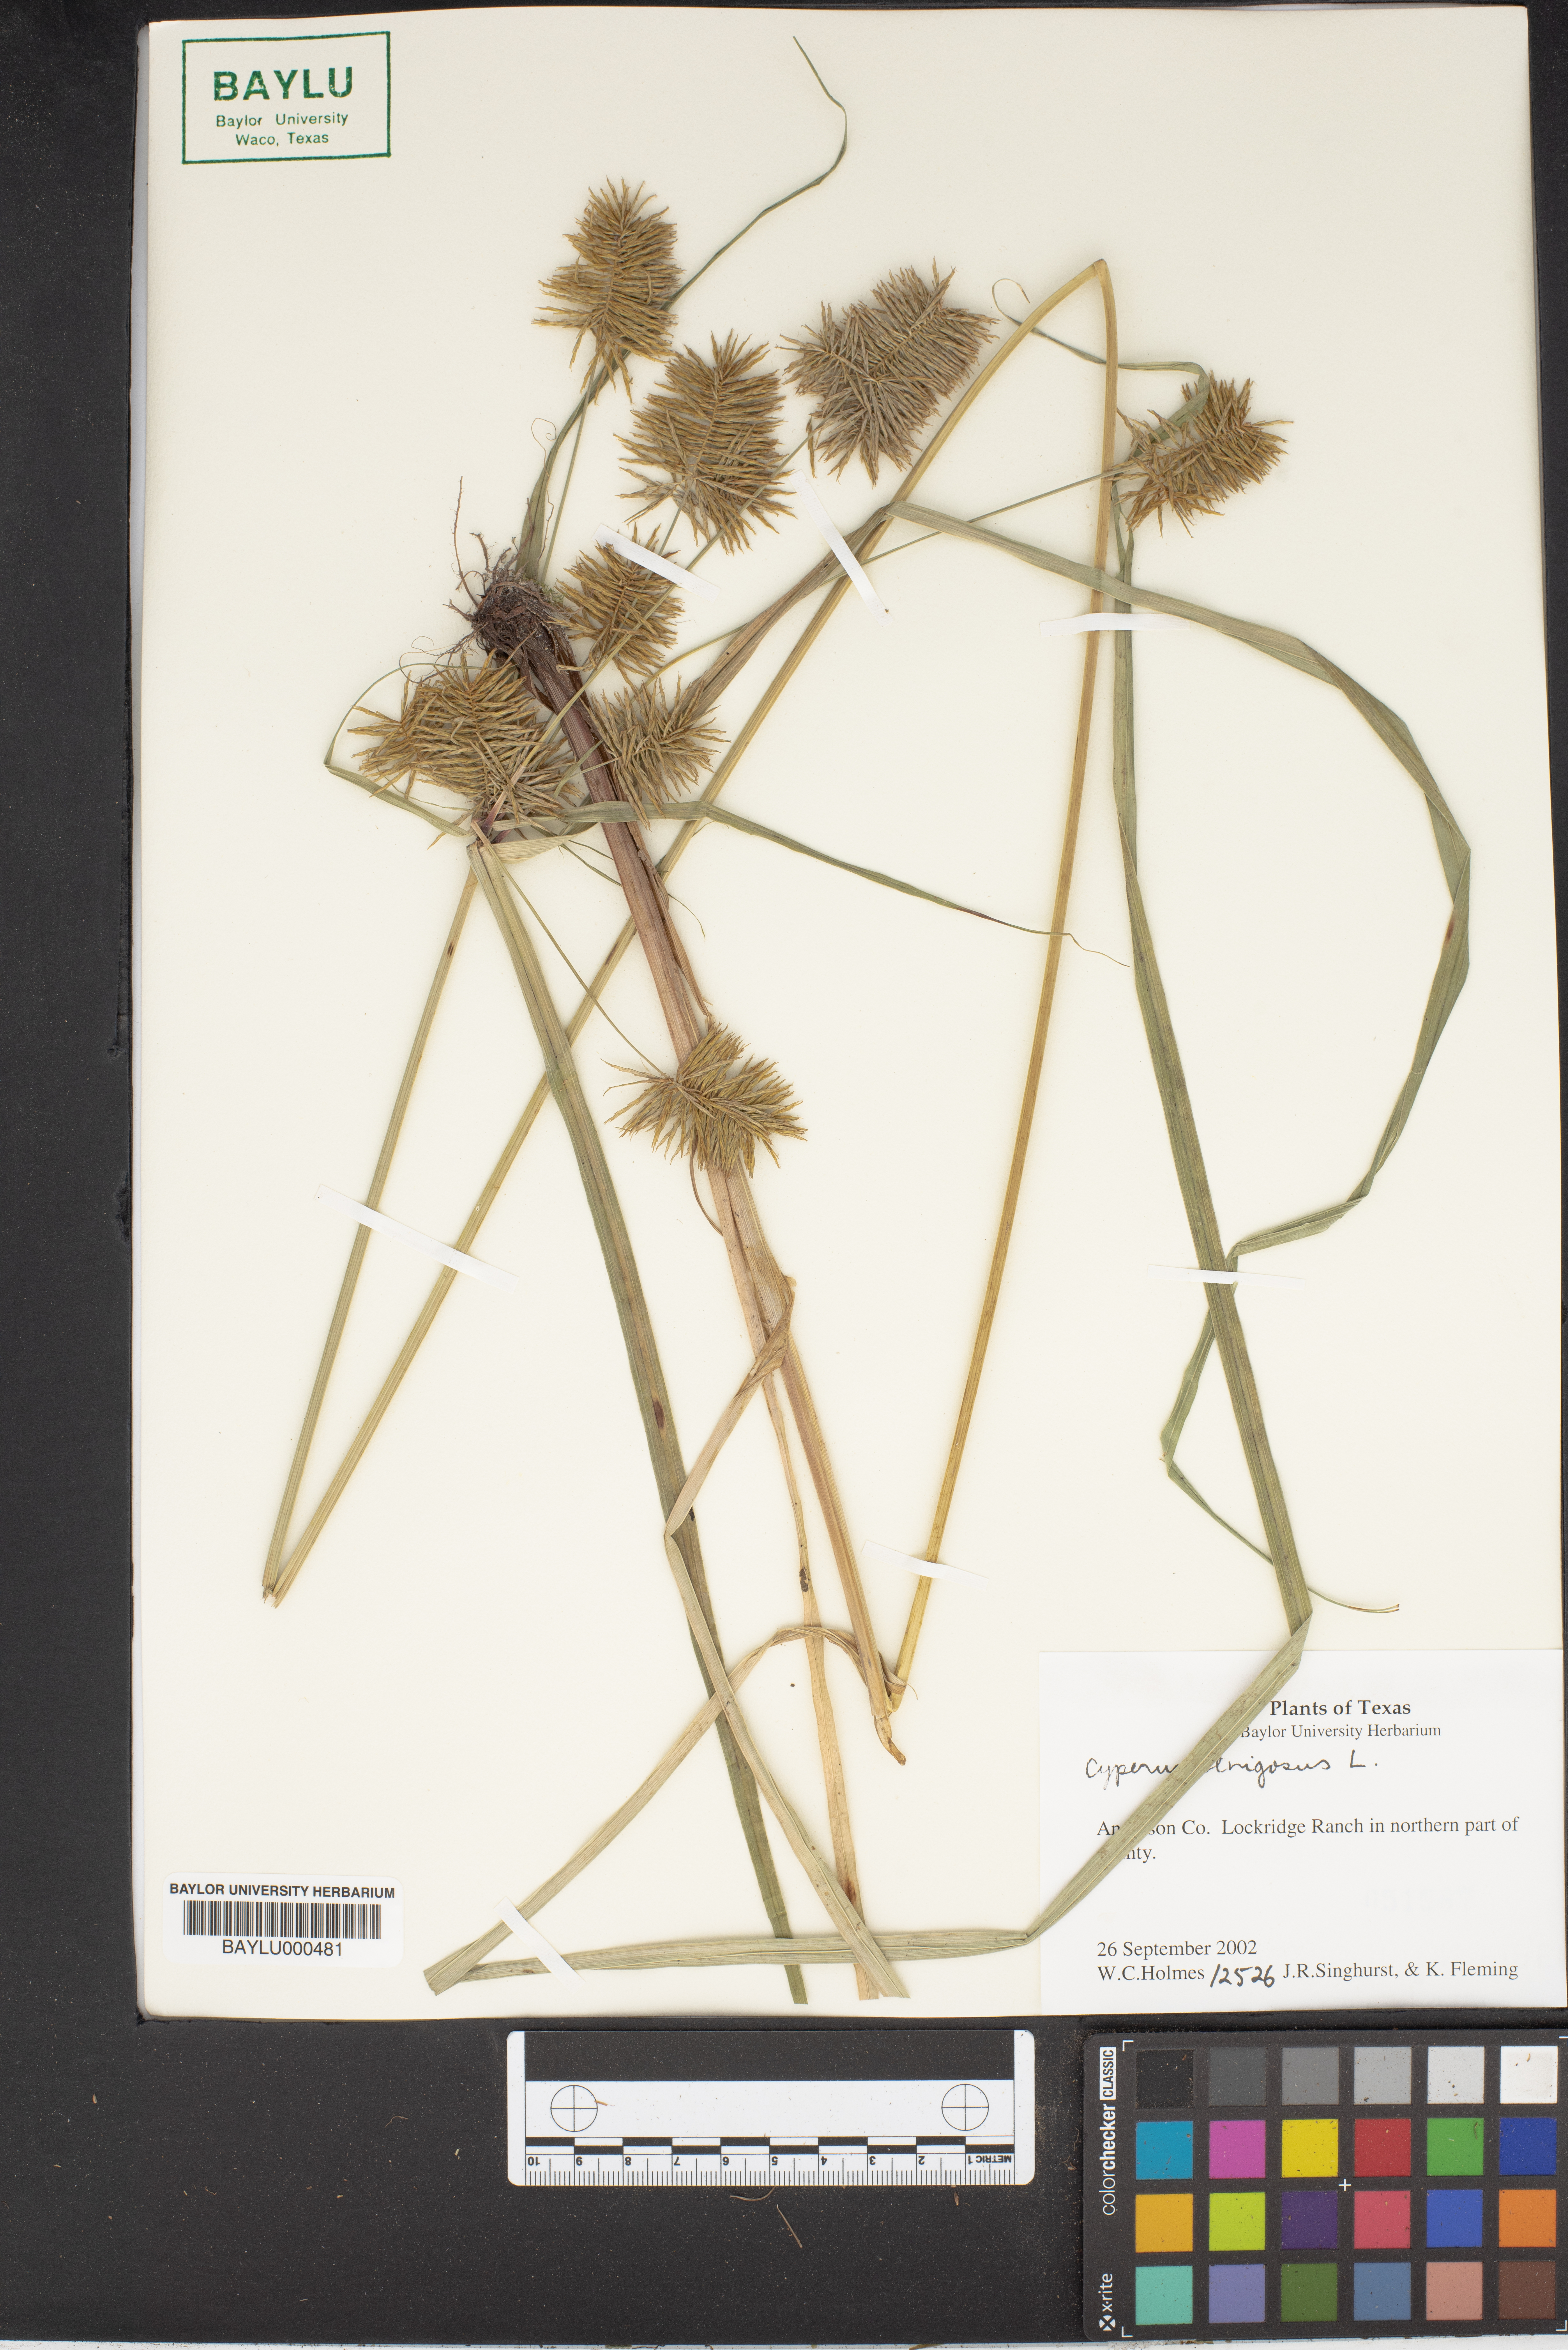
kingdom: Plantae
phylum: Tracheophyta
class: Liliopsida
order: Poales
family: Cyperaceae
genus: Cyperus
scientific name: Cyperus strigosus
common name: False nutsedge
